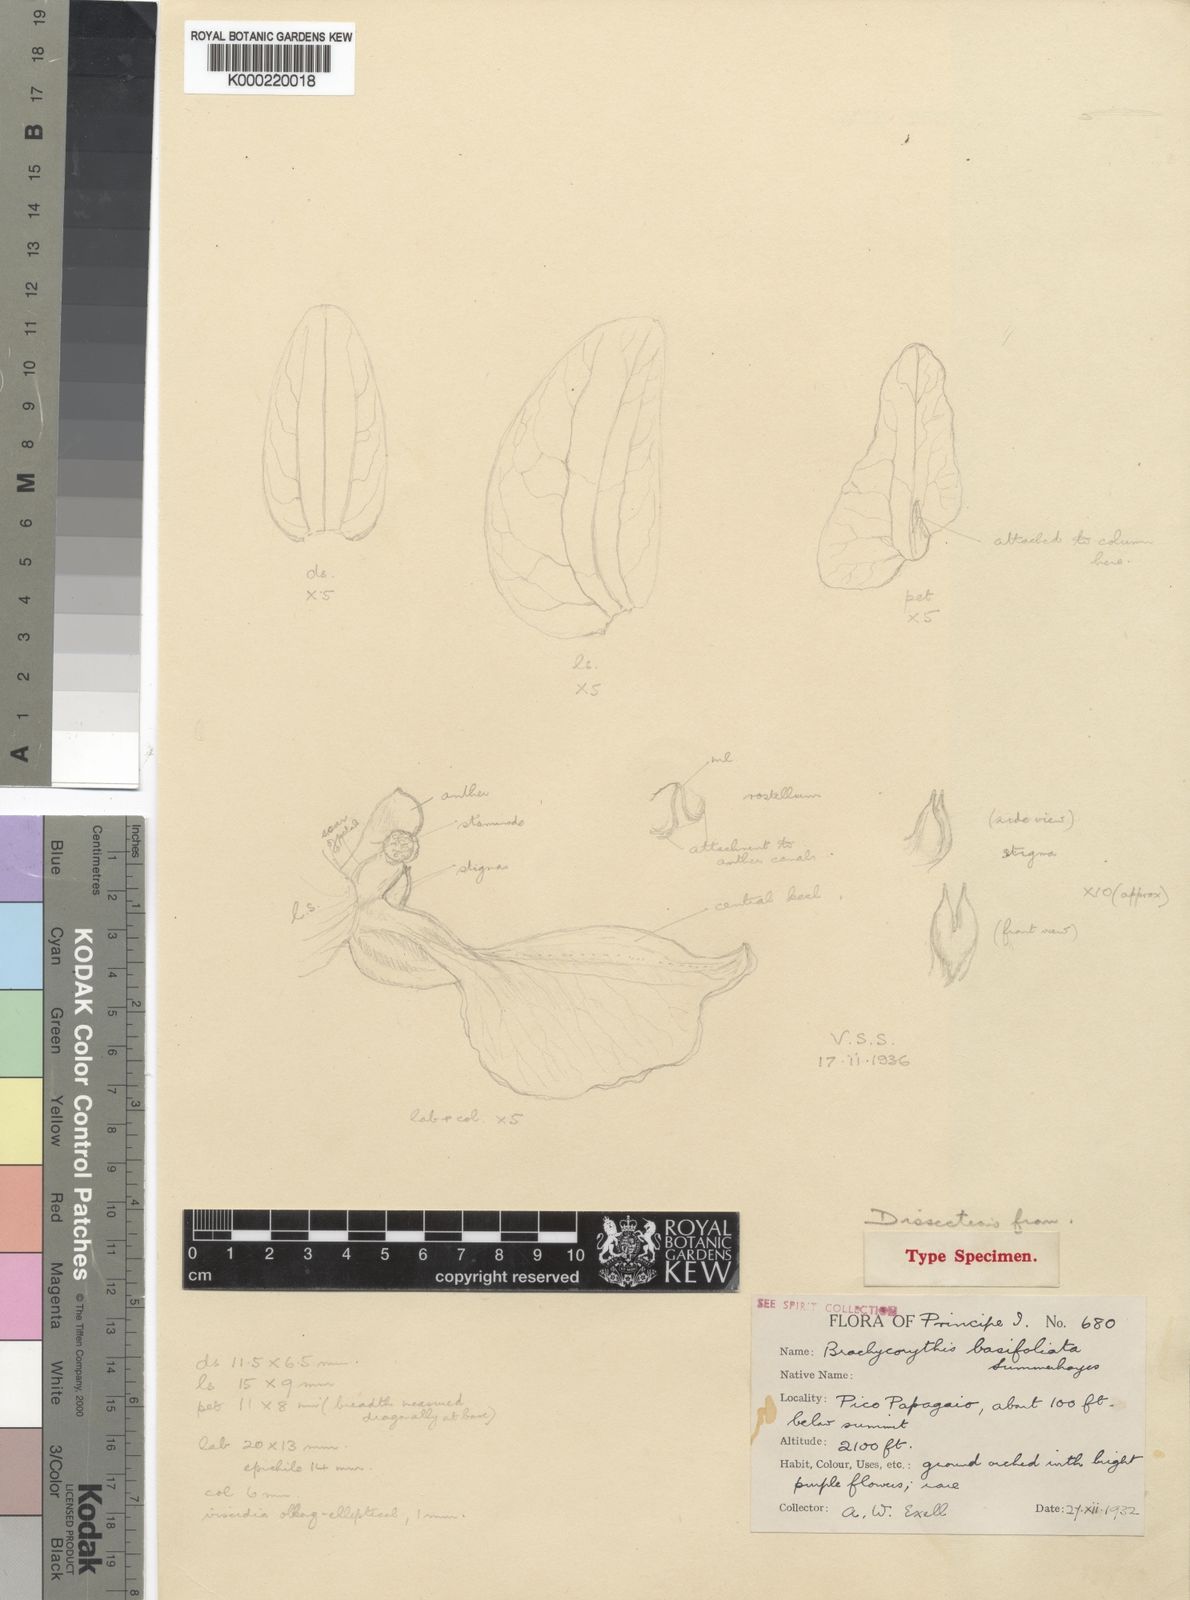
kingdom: Plantae
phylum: Tracheophyta
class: Liliopsida
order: Asparagales
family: Orchidaceae
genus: Brachycorythis
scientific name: Brachycorythis basifoliata
